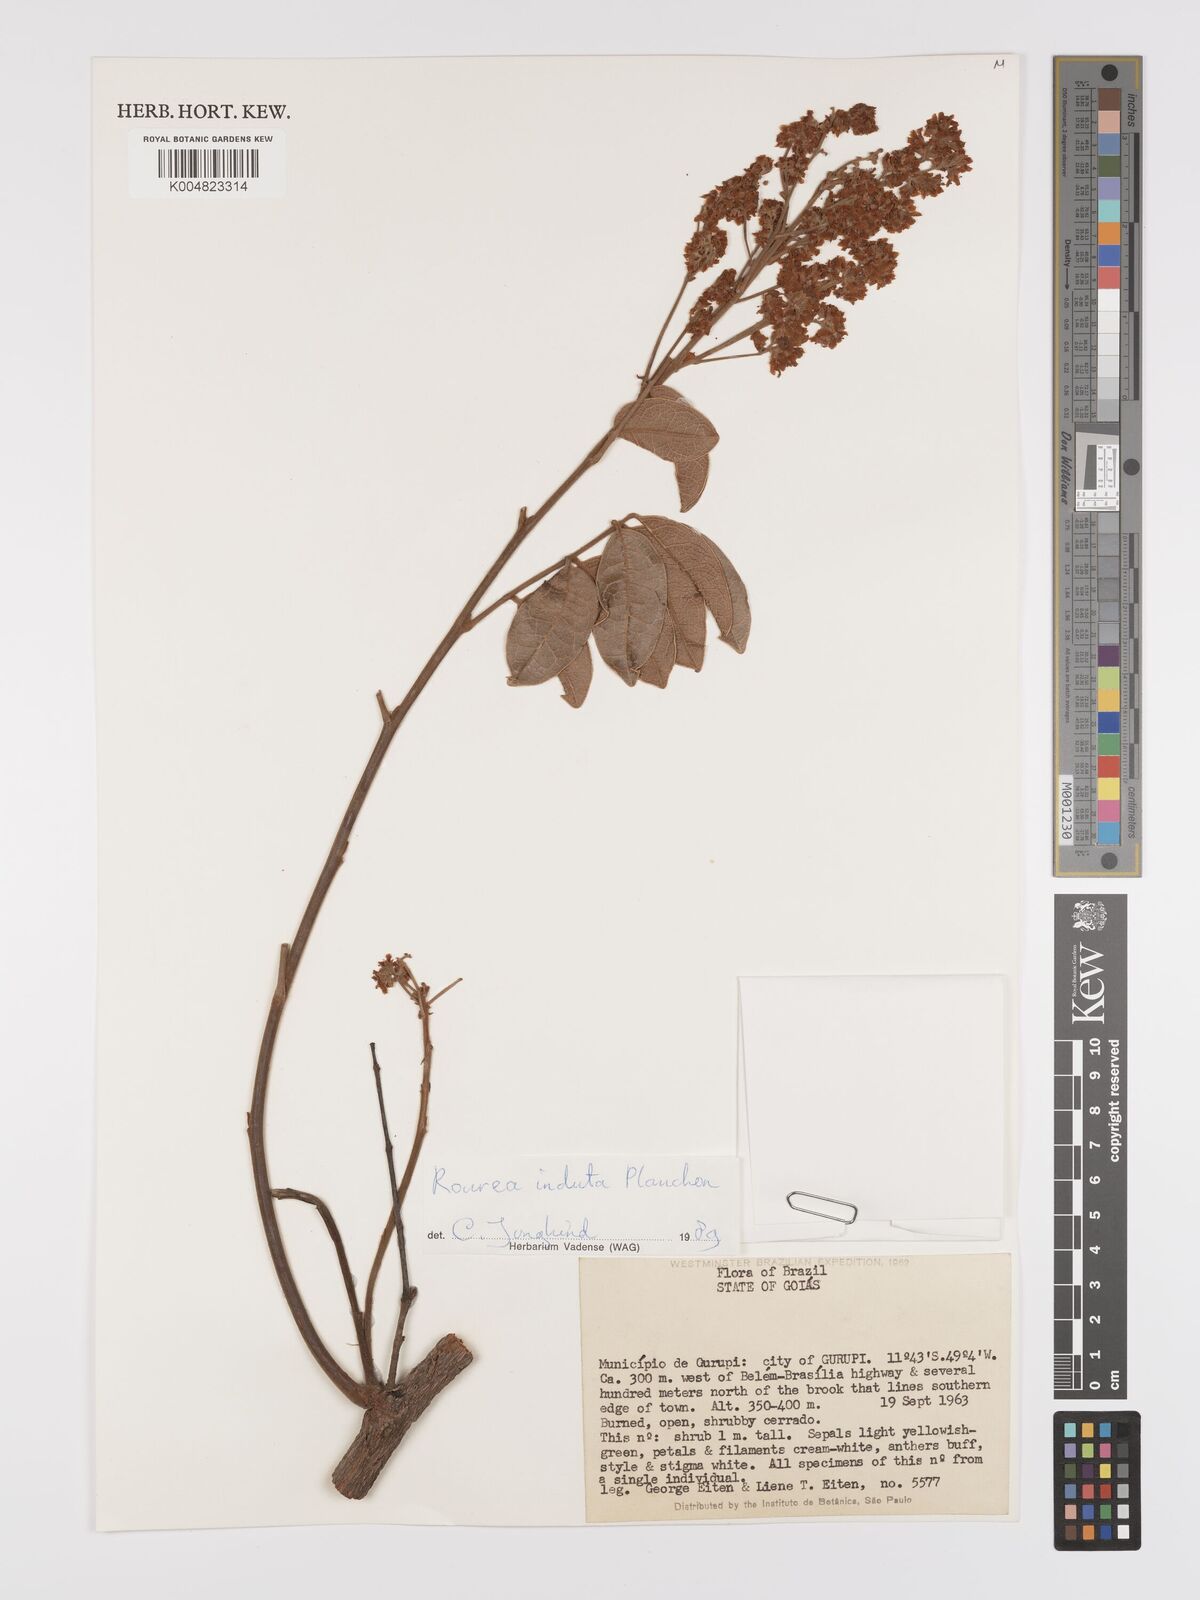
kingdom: Plantae
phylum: Tracheophyta
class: Magnoliopsida
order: Oxalidales
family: Connaraceae
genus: Rourea
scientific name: Rourea induta
